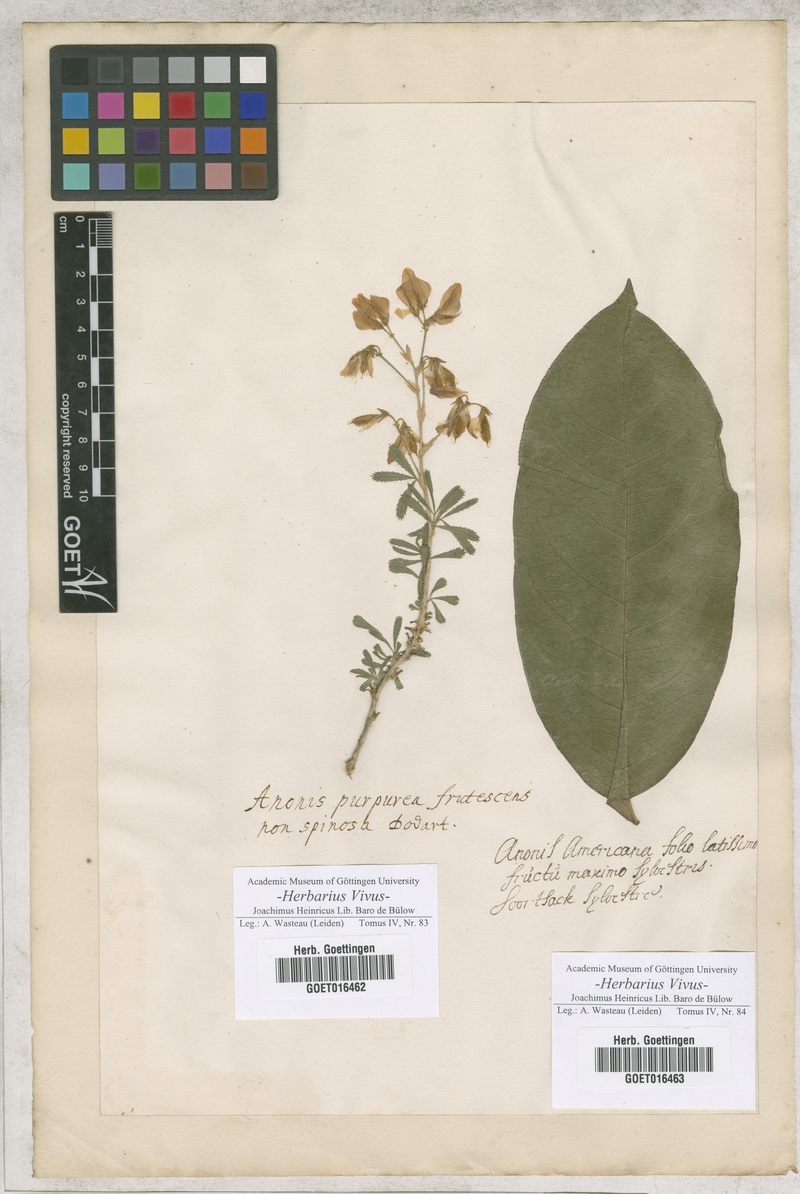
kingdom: Plantae
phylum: Tracheophyta
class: Magnoliopsida
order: Fabales
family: Fabaceae
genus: Ononis
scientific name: Ononis fruticosa
